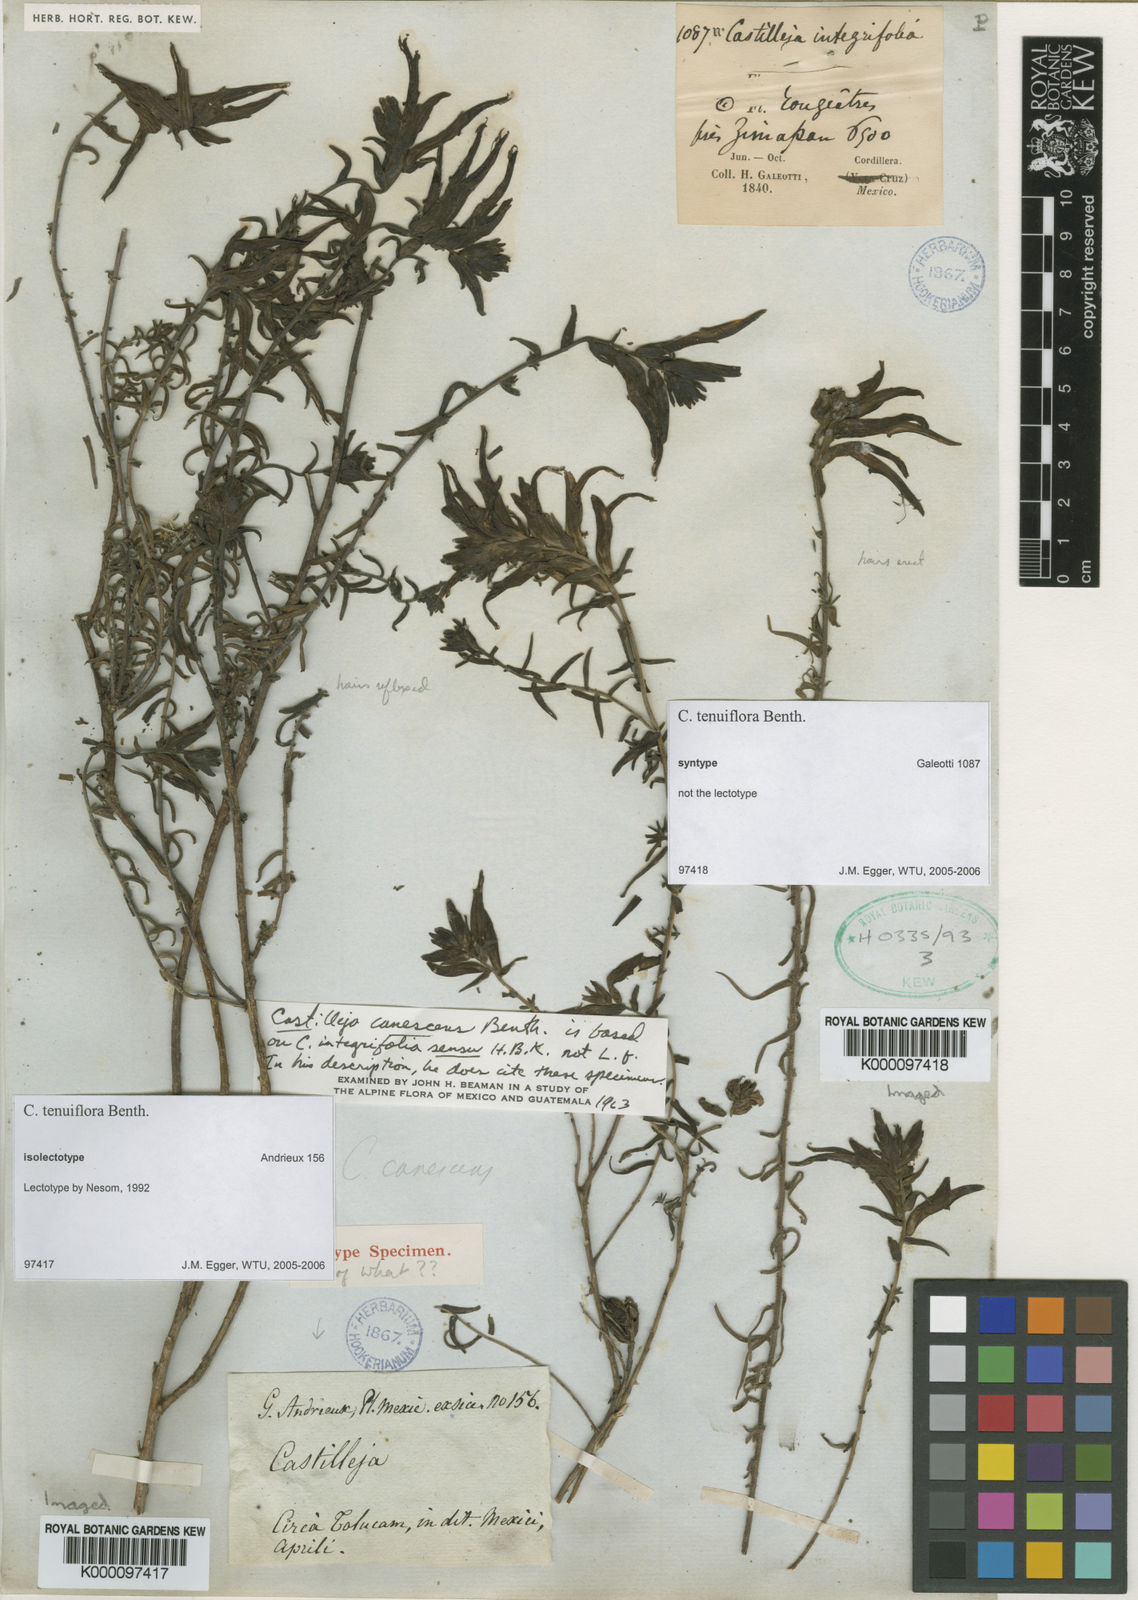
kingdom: Plantae
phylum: Tracheophyta
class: Magnoliopsida
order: Lamiales
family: Orobanchaceae
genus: Castilleja
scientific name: Castilleja tenuiflora
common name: Santa catalina indian paintbrush
